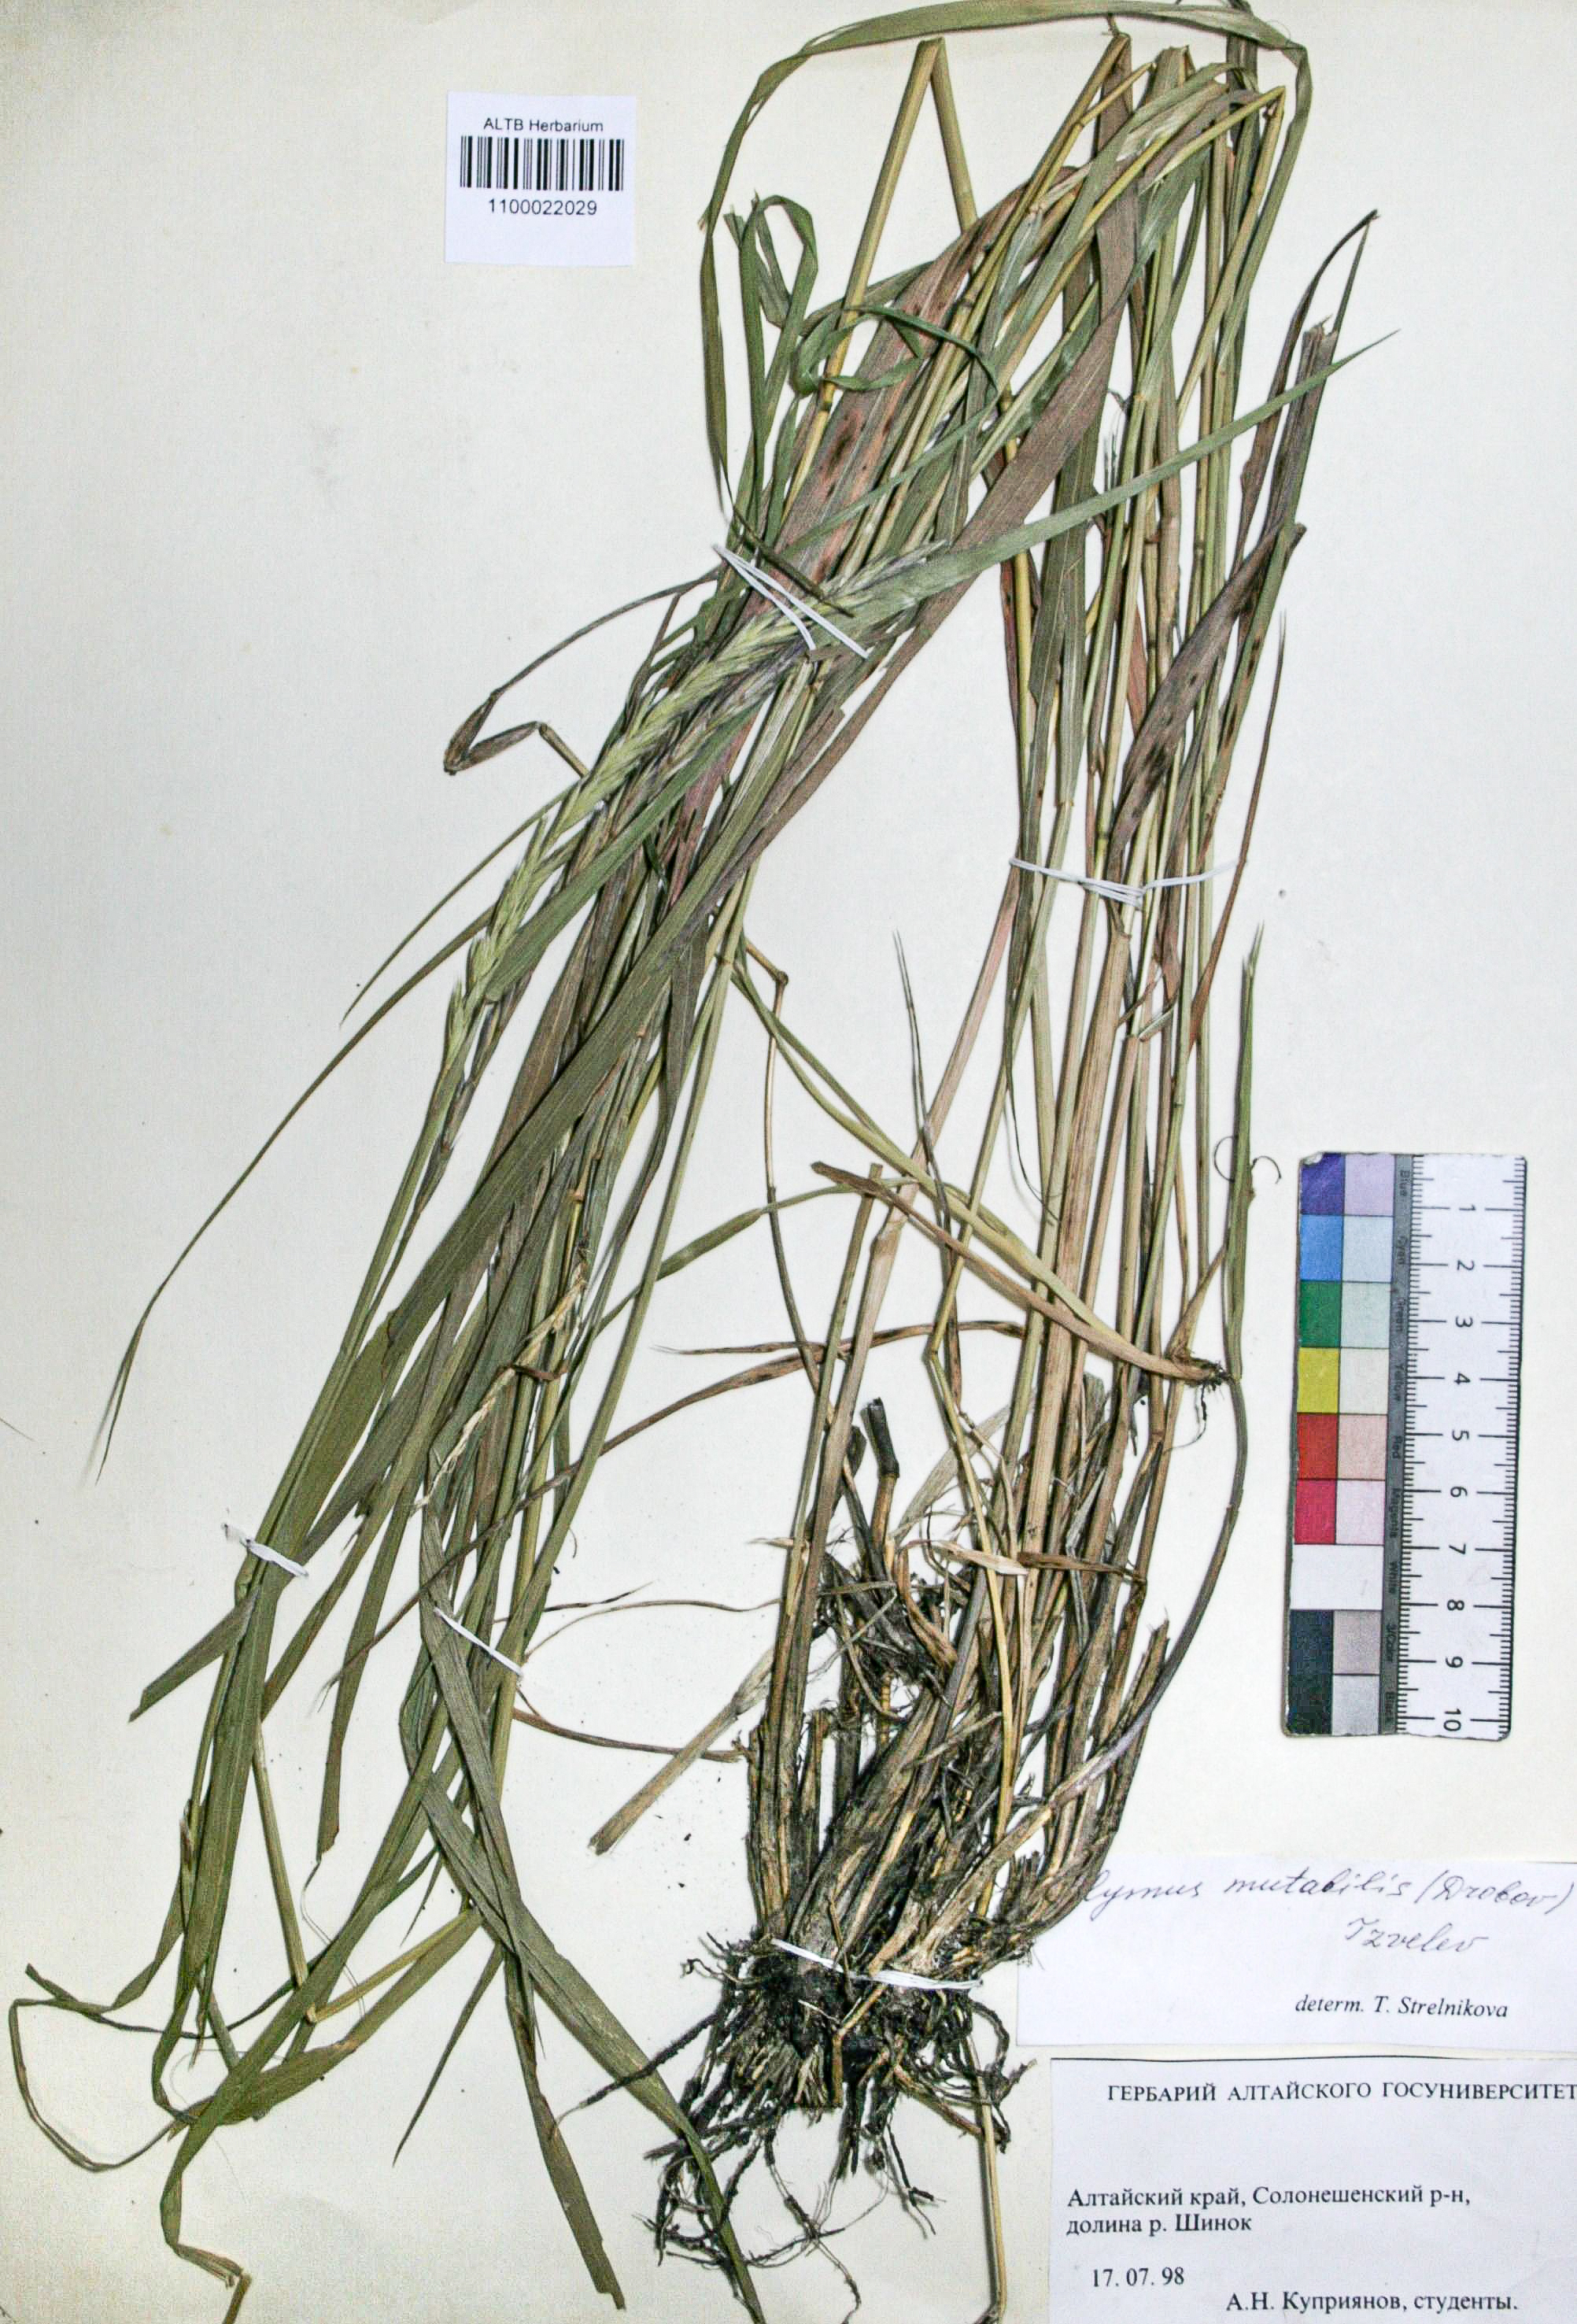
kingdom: Plantae
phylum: Tracheophyta
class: Liliopsida
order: Poales
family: Poaceae
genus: Elymus
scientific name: Elymus mutabilis
